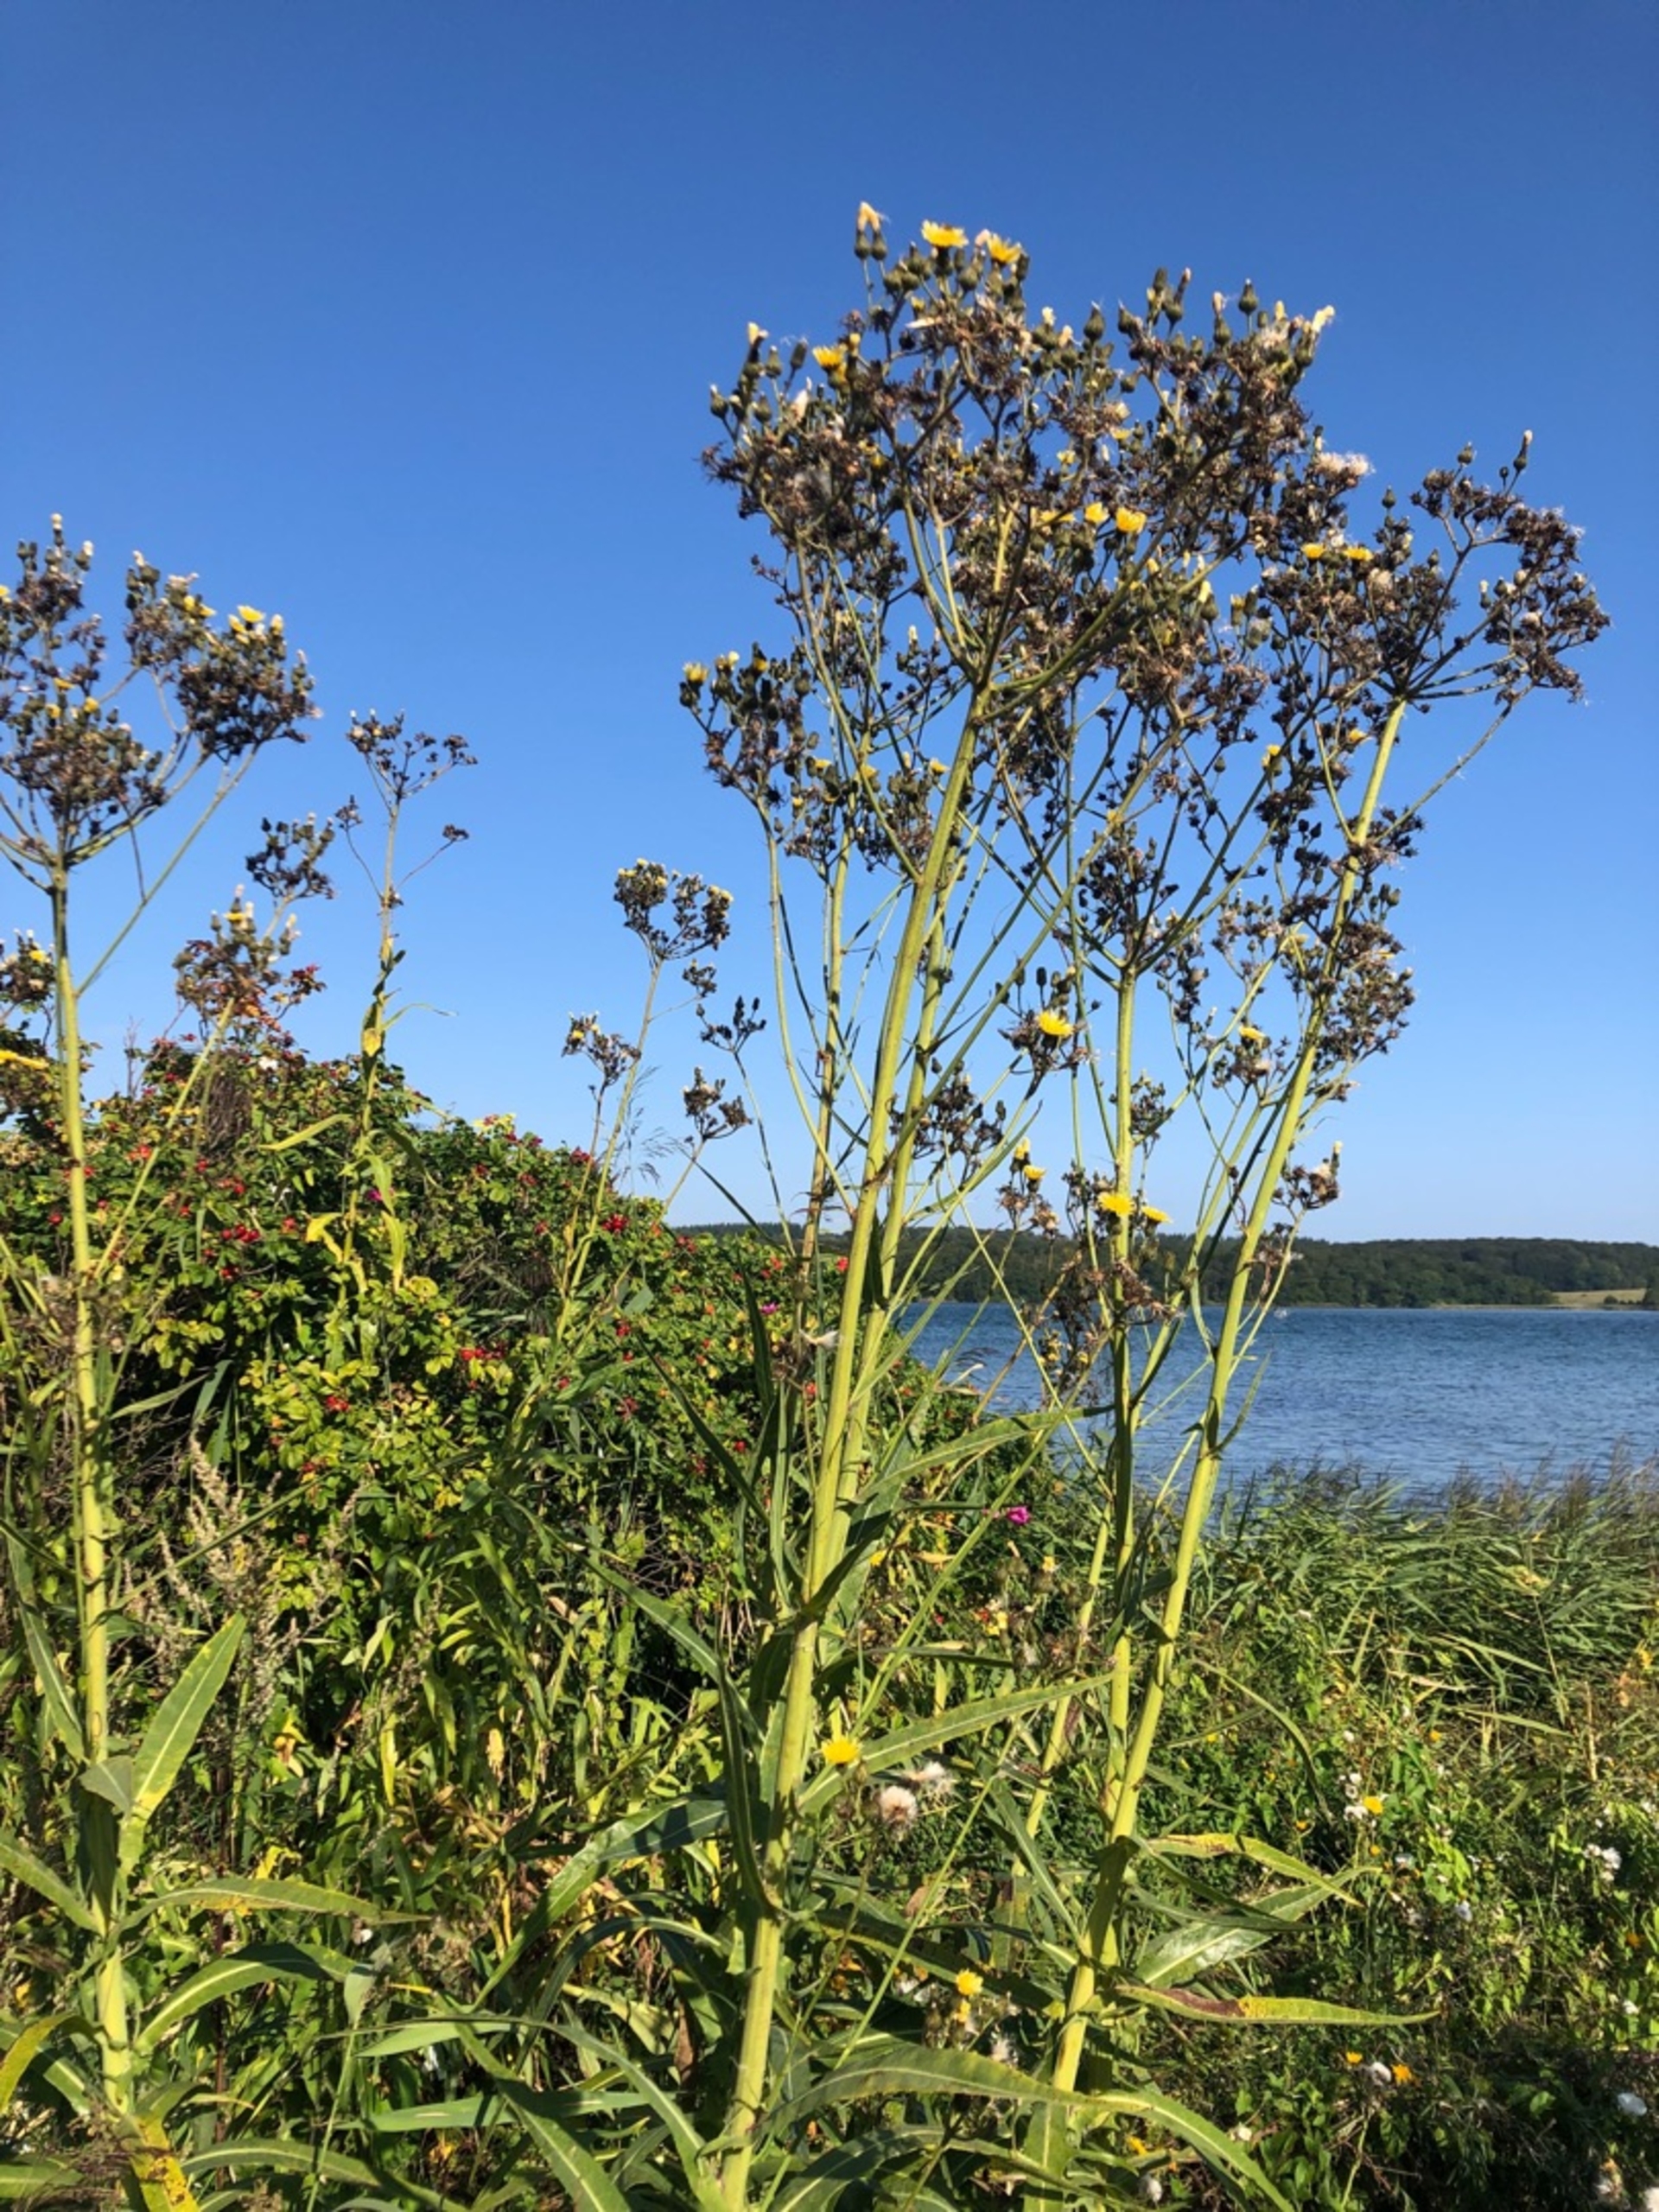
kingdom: Plantae
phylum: Tracheophyta
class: Magnoliopsida
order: Asterales
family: Asteraceae
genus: Sonchus
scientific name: Sonchus palustris
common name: Kær-svinemælk
